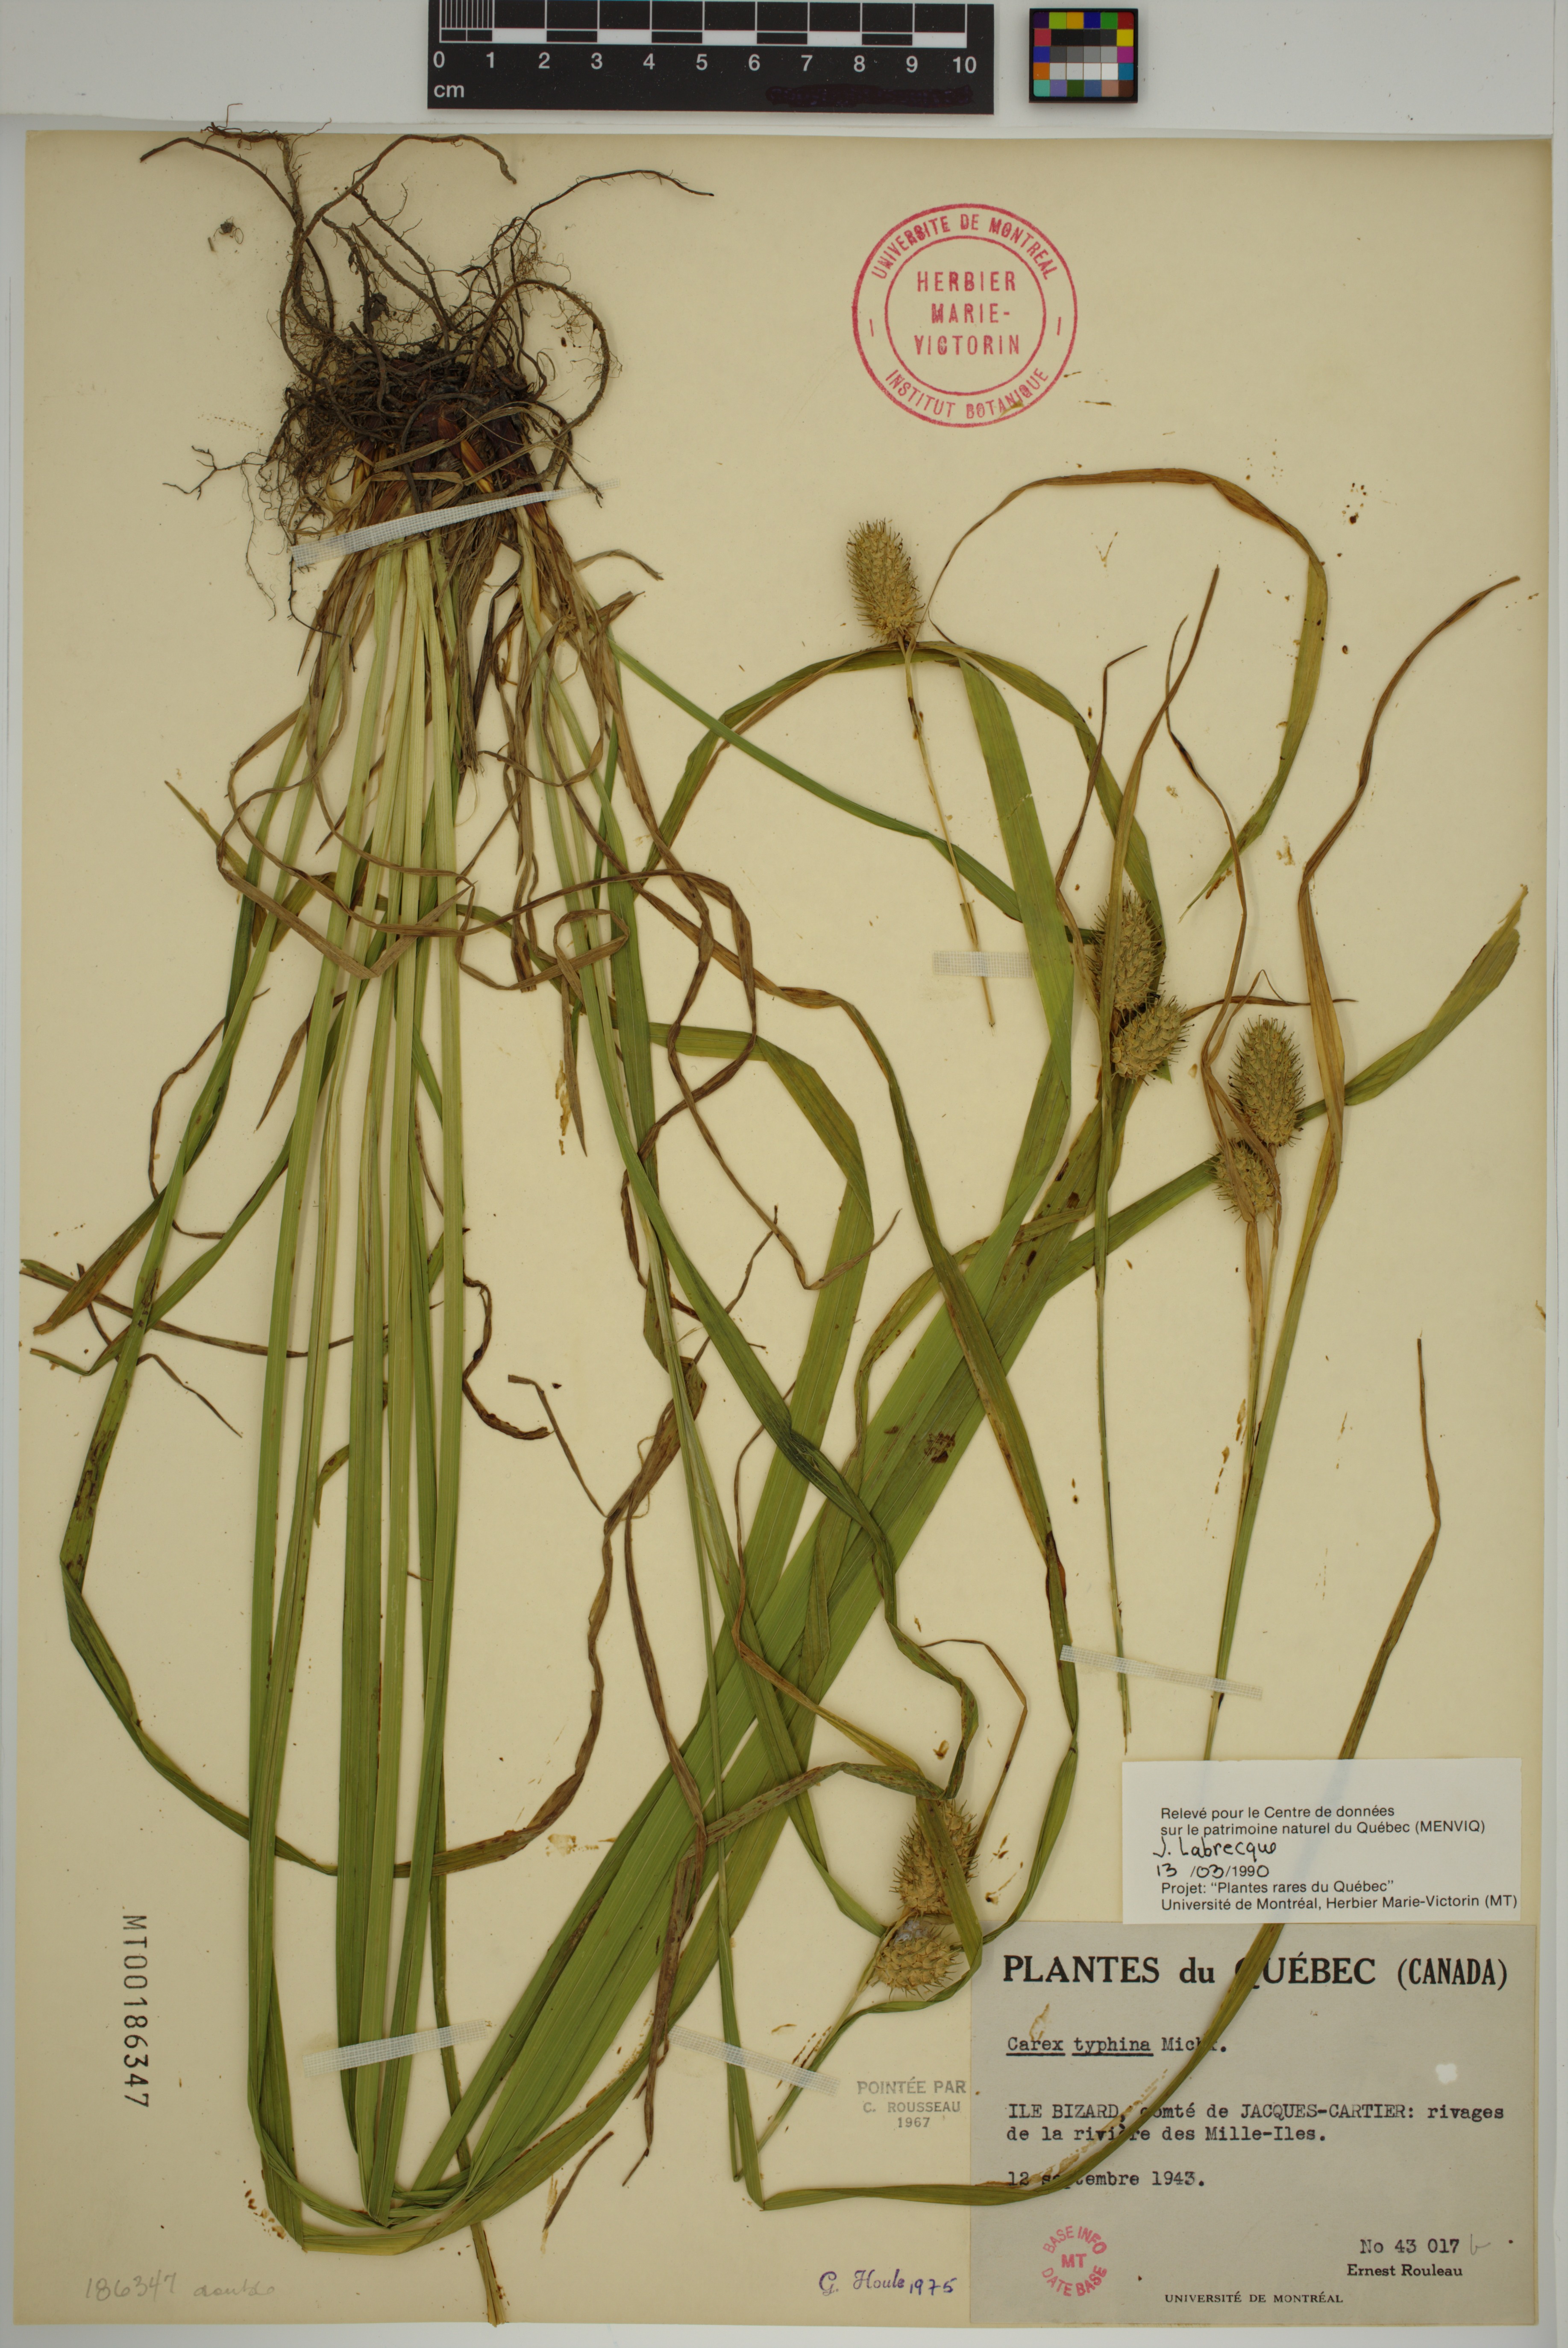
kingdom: Plantae
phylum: Tracheophyta
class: Liliopsida
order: Poales
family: Cyperaceae
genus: Carex
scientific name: Carex typhina
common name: Cattail sedge
